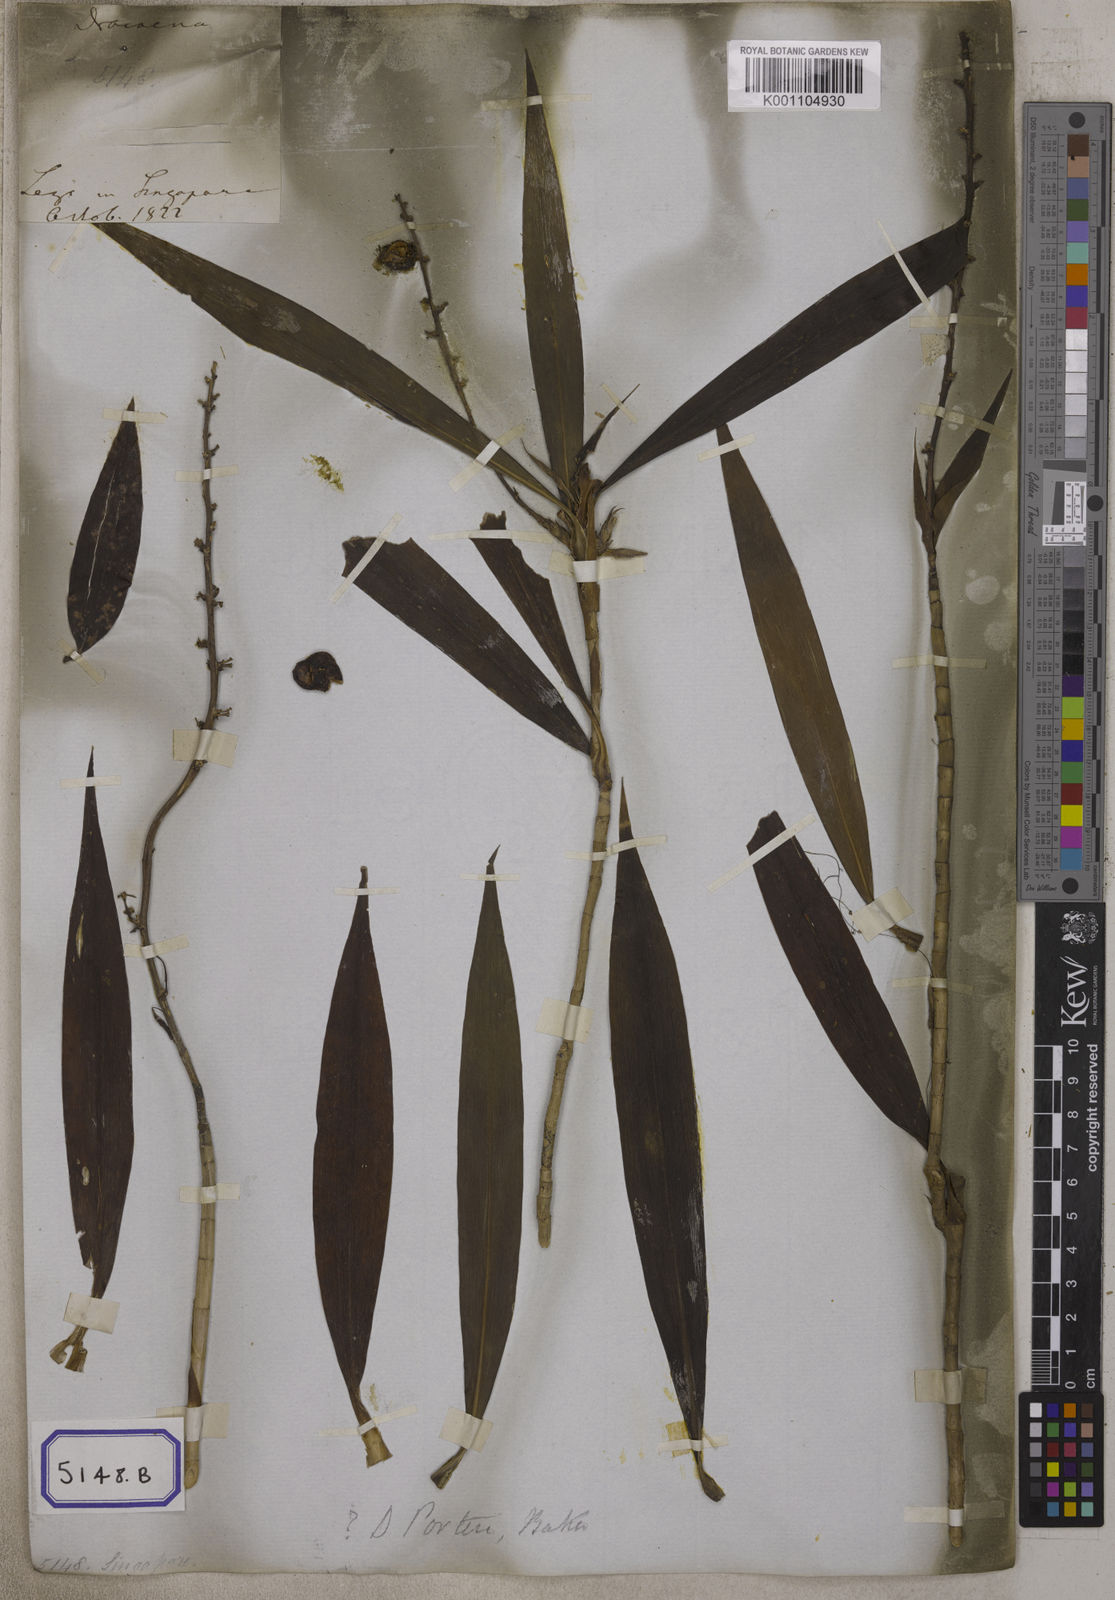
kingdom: Plantae
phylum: Tracheophyta
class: Liliopsida
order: Asparagales
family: Asparagaceae
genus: Dracaena
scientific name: Dracaena
